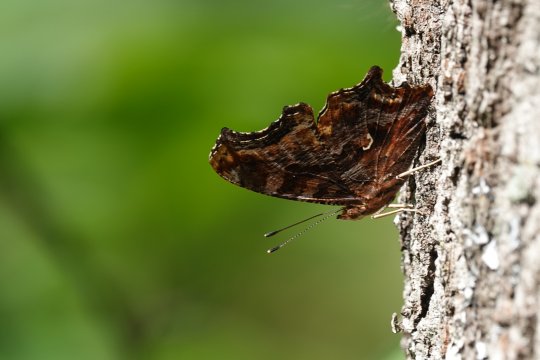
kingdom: Animalia
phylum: Arthropoda
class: Insecta
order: Lepidoptera
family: Nymphalidae
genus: Polygonia
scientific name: Polygonia comma
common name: Eastern Comma
